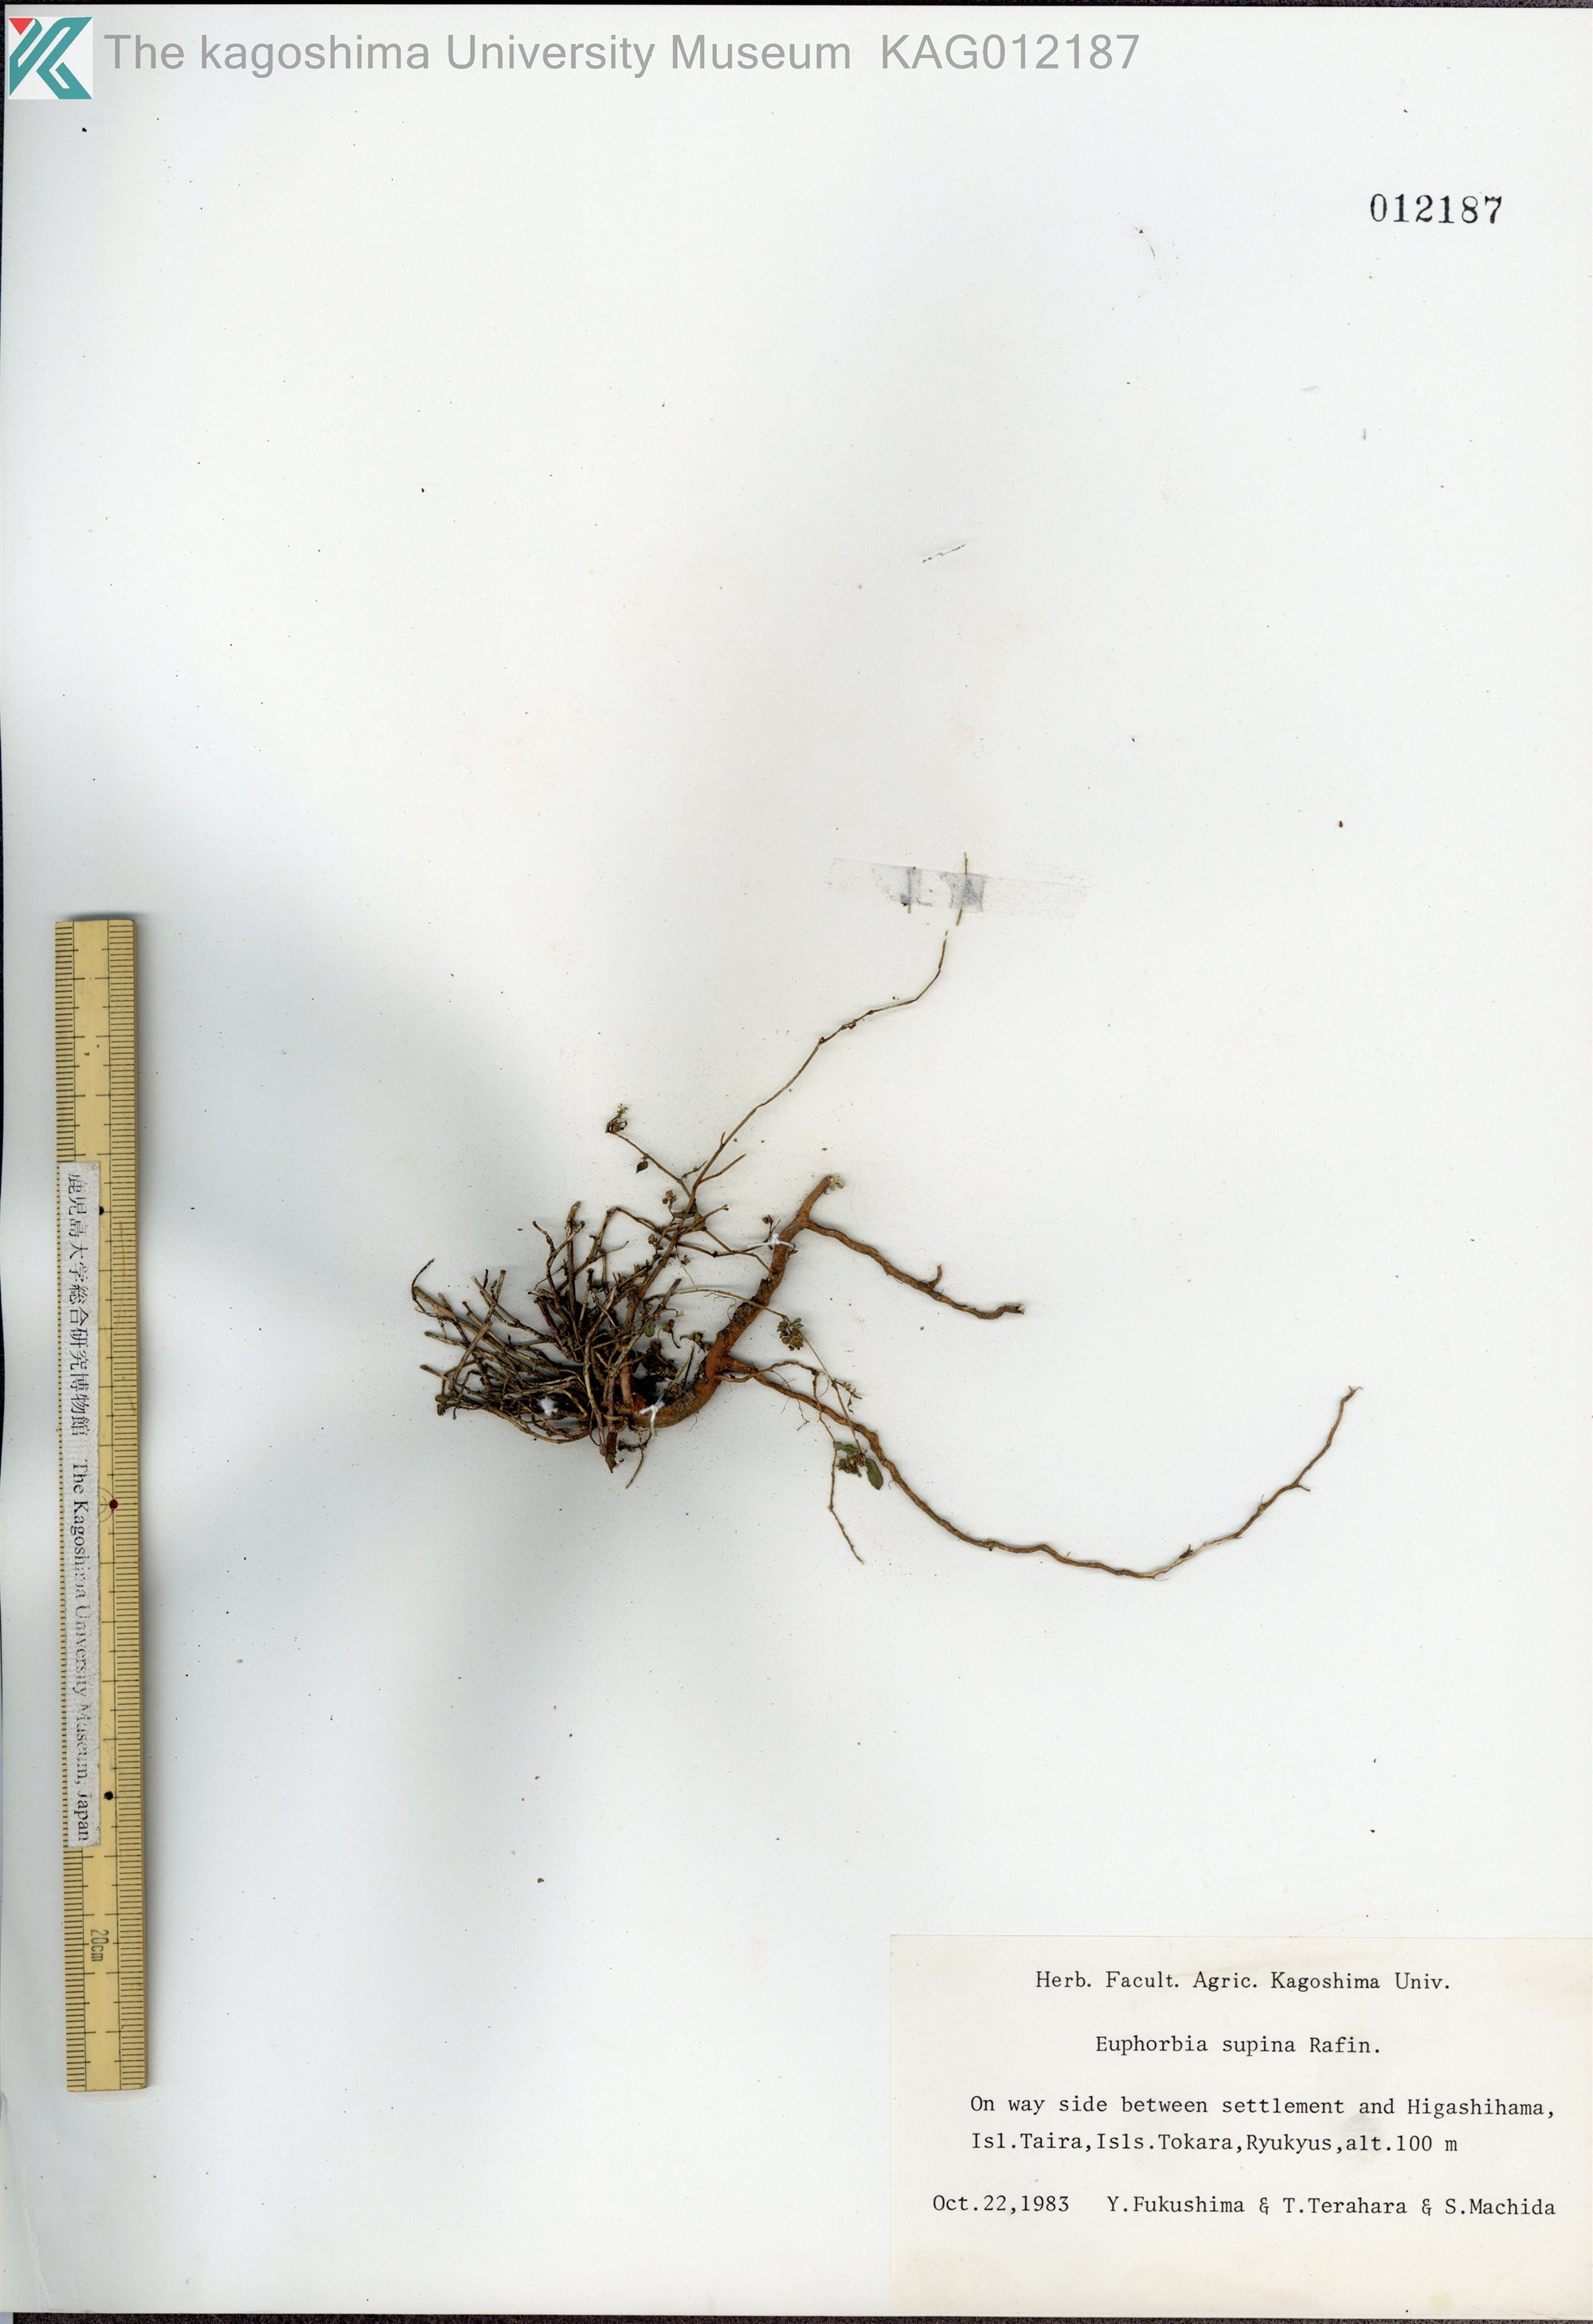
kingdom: Plantae
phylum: Tracheophyta
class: Magnoliopsida
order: Malpighiales
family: Euphorbiaceae
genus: Euphorbia
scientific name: Euphorbia maculata
